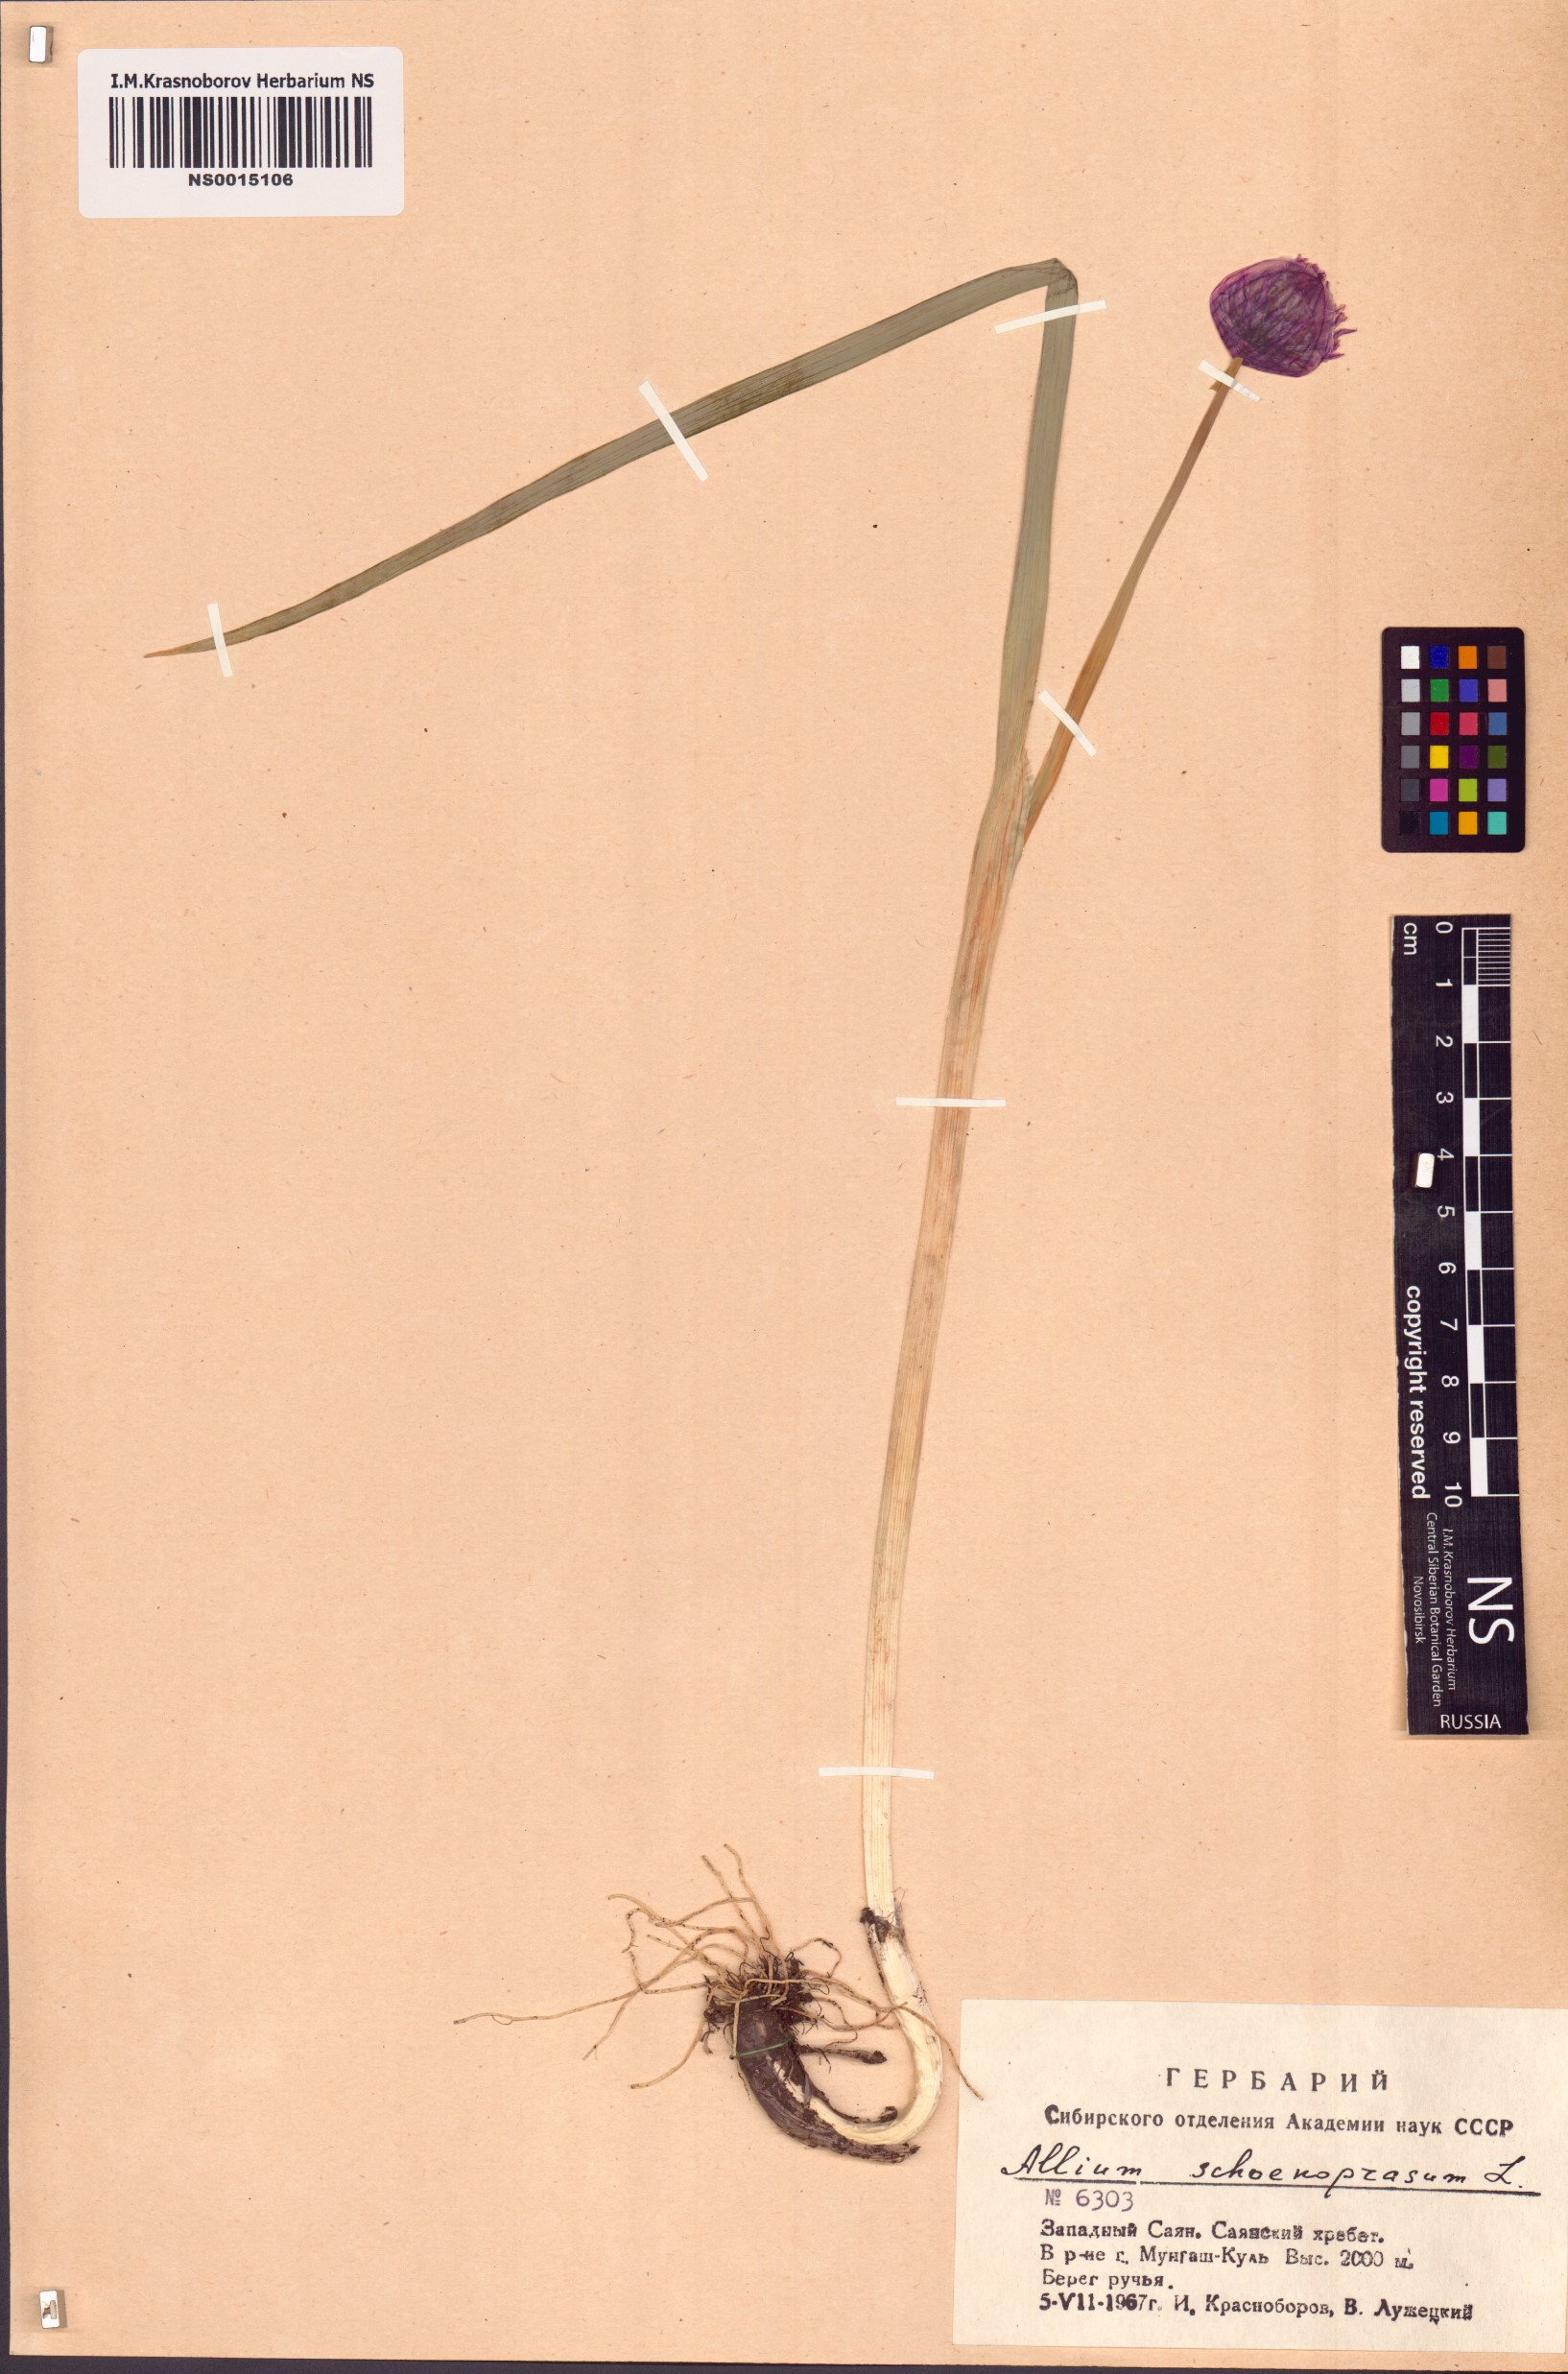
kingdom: Plantae
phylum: Tracheophyta
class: Liliopsida
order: Asparagales
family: Amaryllidaceae
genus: Allium
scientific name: Allium schoenoprasum
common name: Chives
